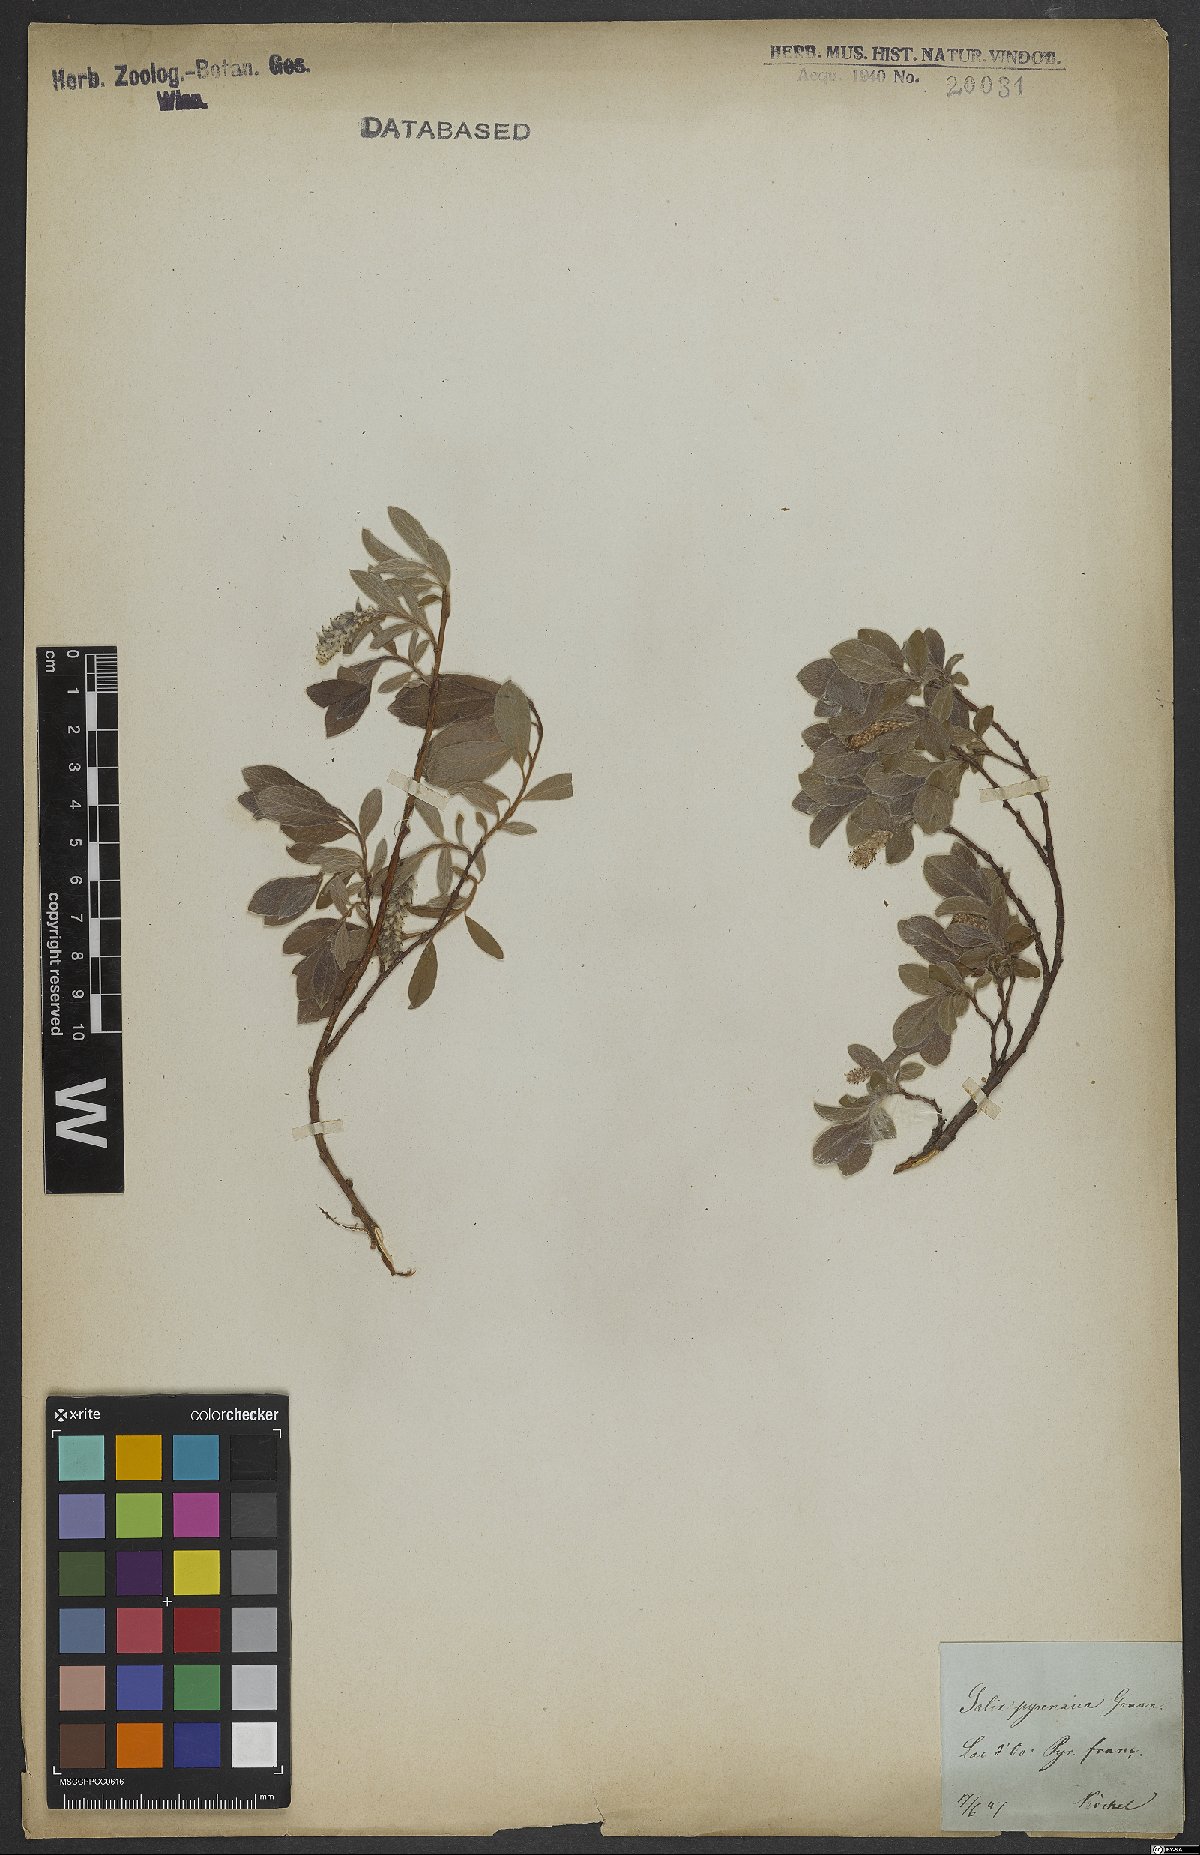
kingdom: Plantae
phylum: Tracheophyta
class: Magnoliopsida
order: Malpighiales
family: Salicaceae
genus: Salix
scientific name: Salix pyrenaica
